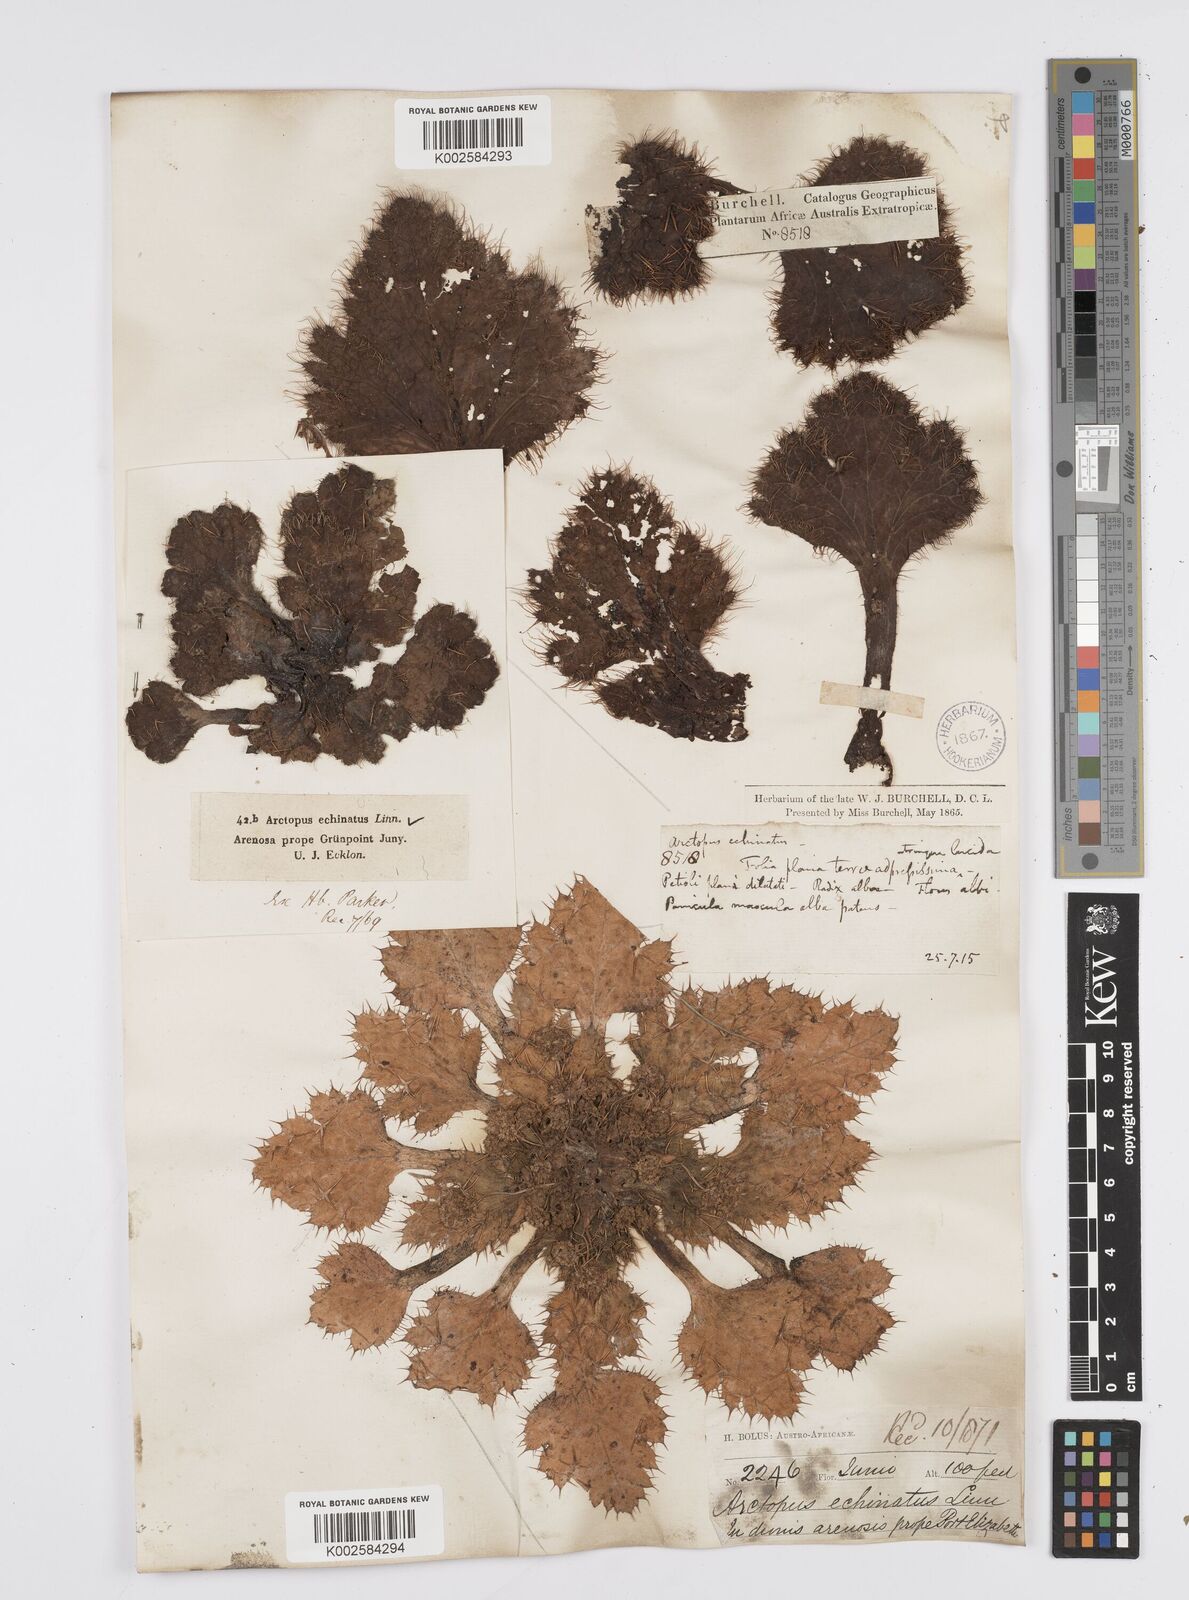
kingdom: Plantae
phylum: Tracheophyta
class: Magnoliopsida
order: Apiales
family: Apiaceae
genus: Arctopus
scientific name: Arctopus echinatus
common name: Platdoring
